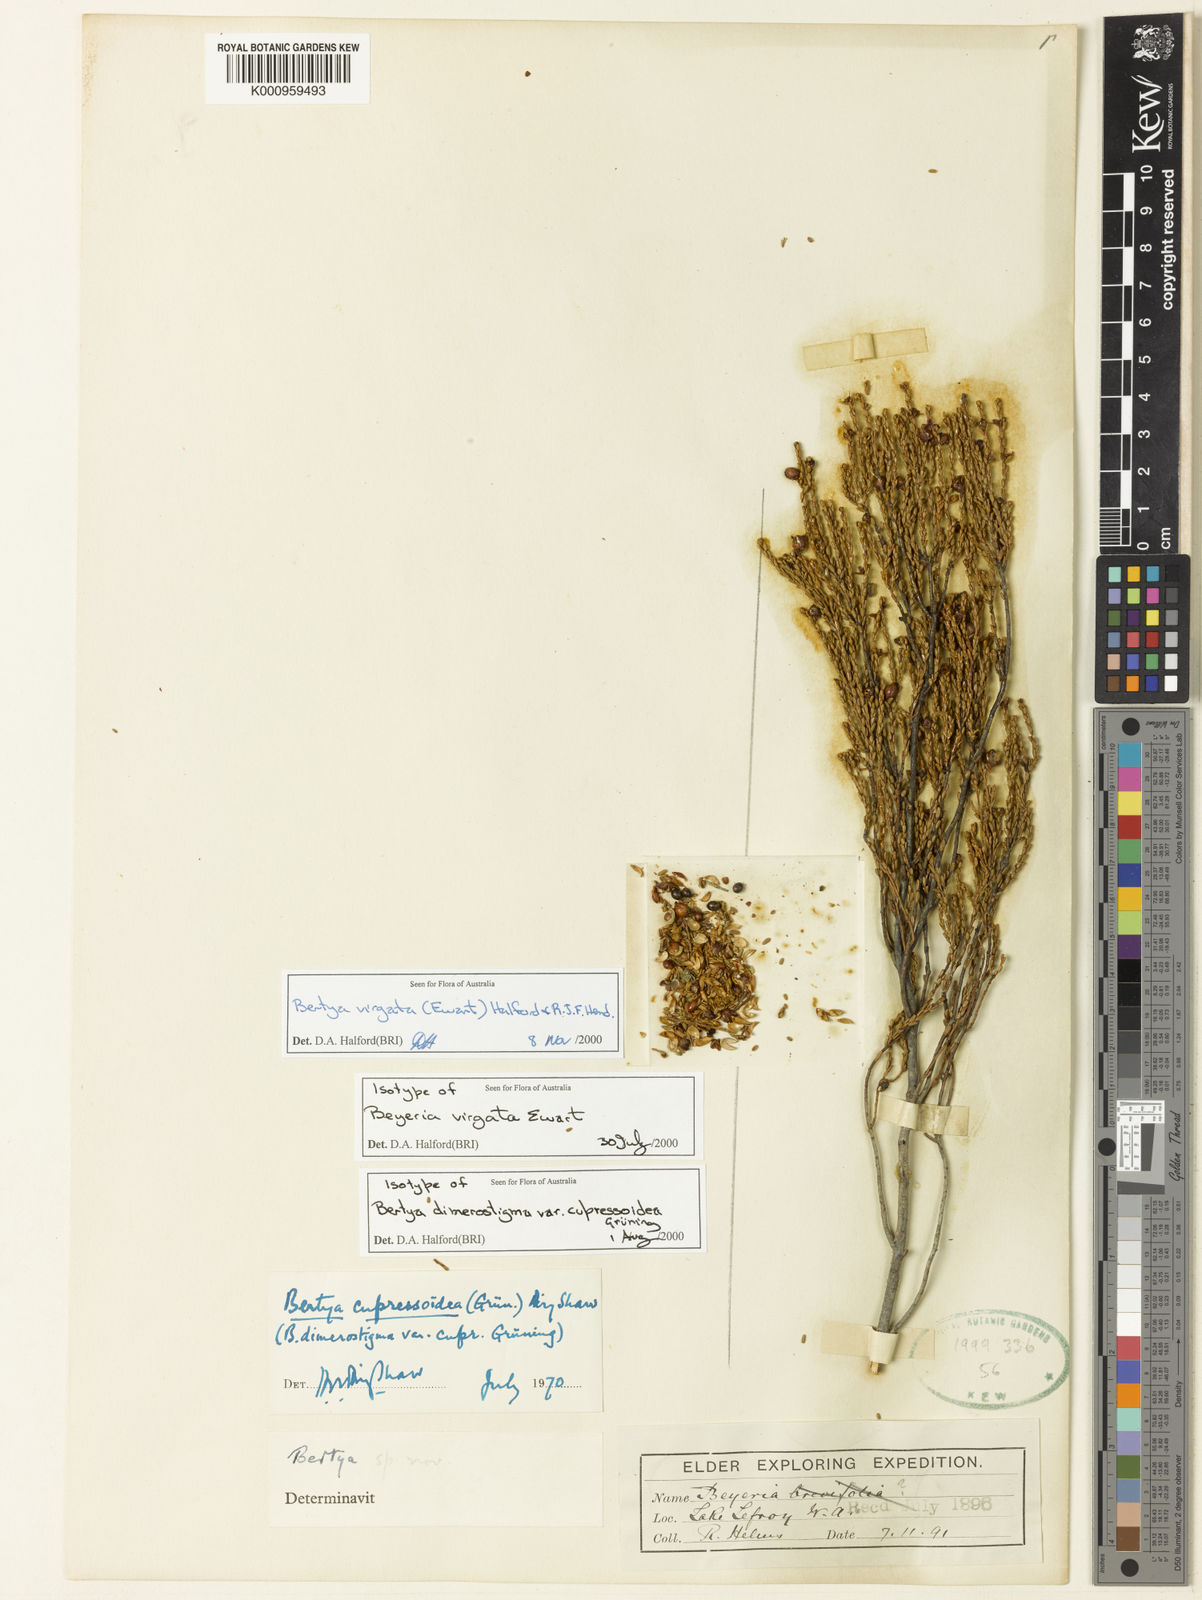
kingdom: Plantae
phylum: Tracheophyta
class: Magnoliopsida
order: Malpighiales
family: Euphorbiaceae
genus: Bertya
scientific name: Bertya virgata
